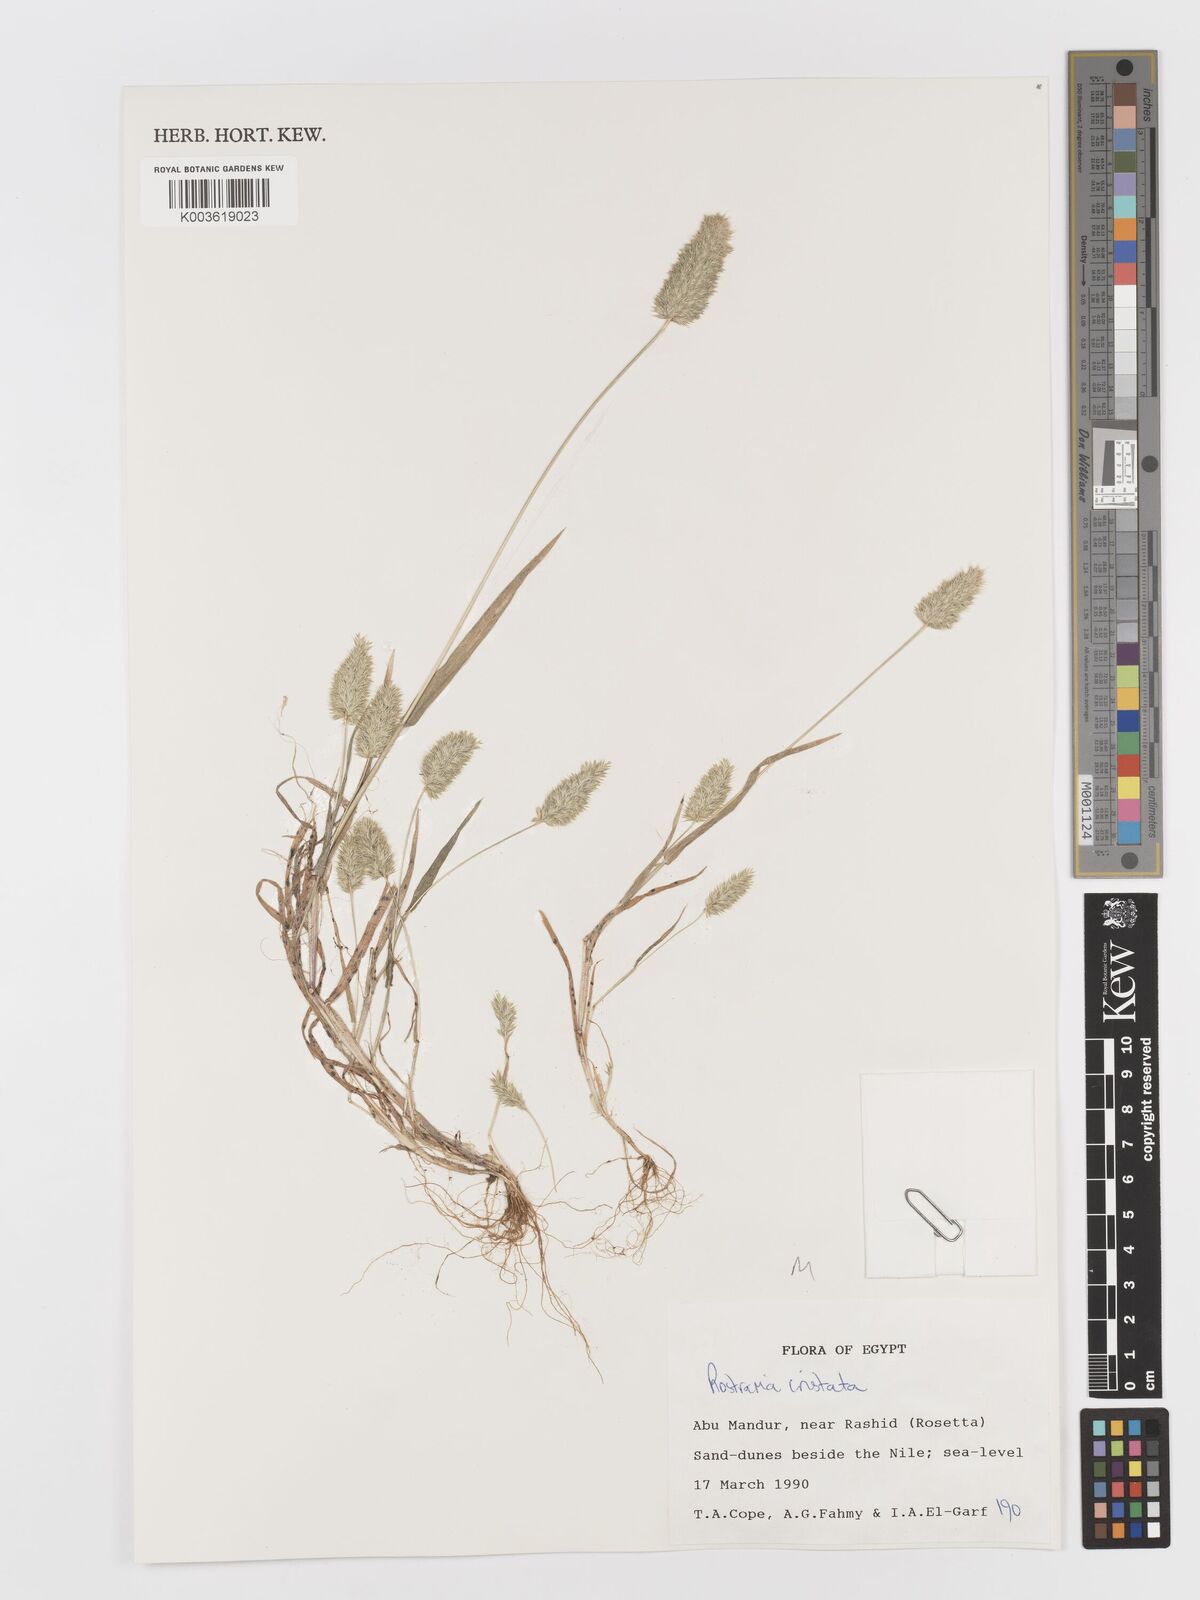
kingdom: Plantae
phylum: Tracheophyta
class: Liliopsida
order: Poales
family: Poaceae
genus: Rostraria
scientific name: Rostraria cristata
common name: Mediterranean hair-grass
